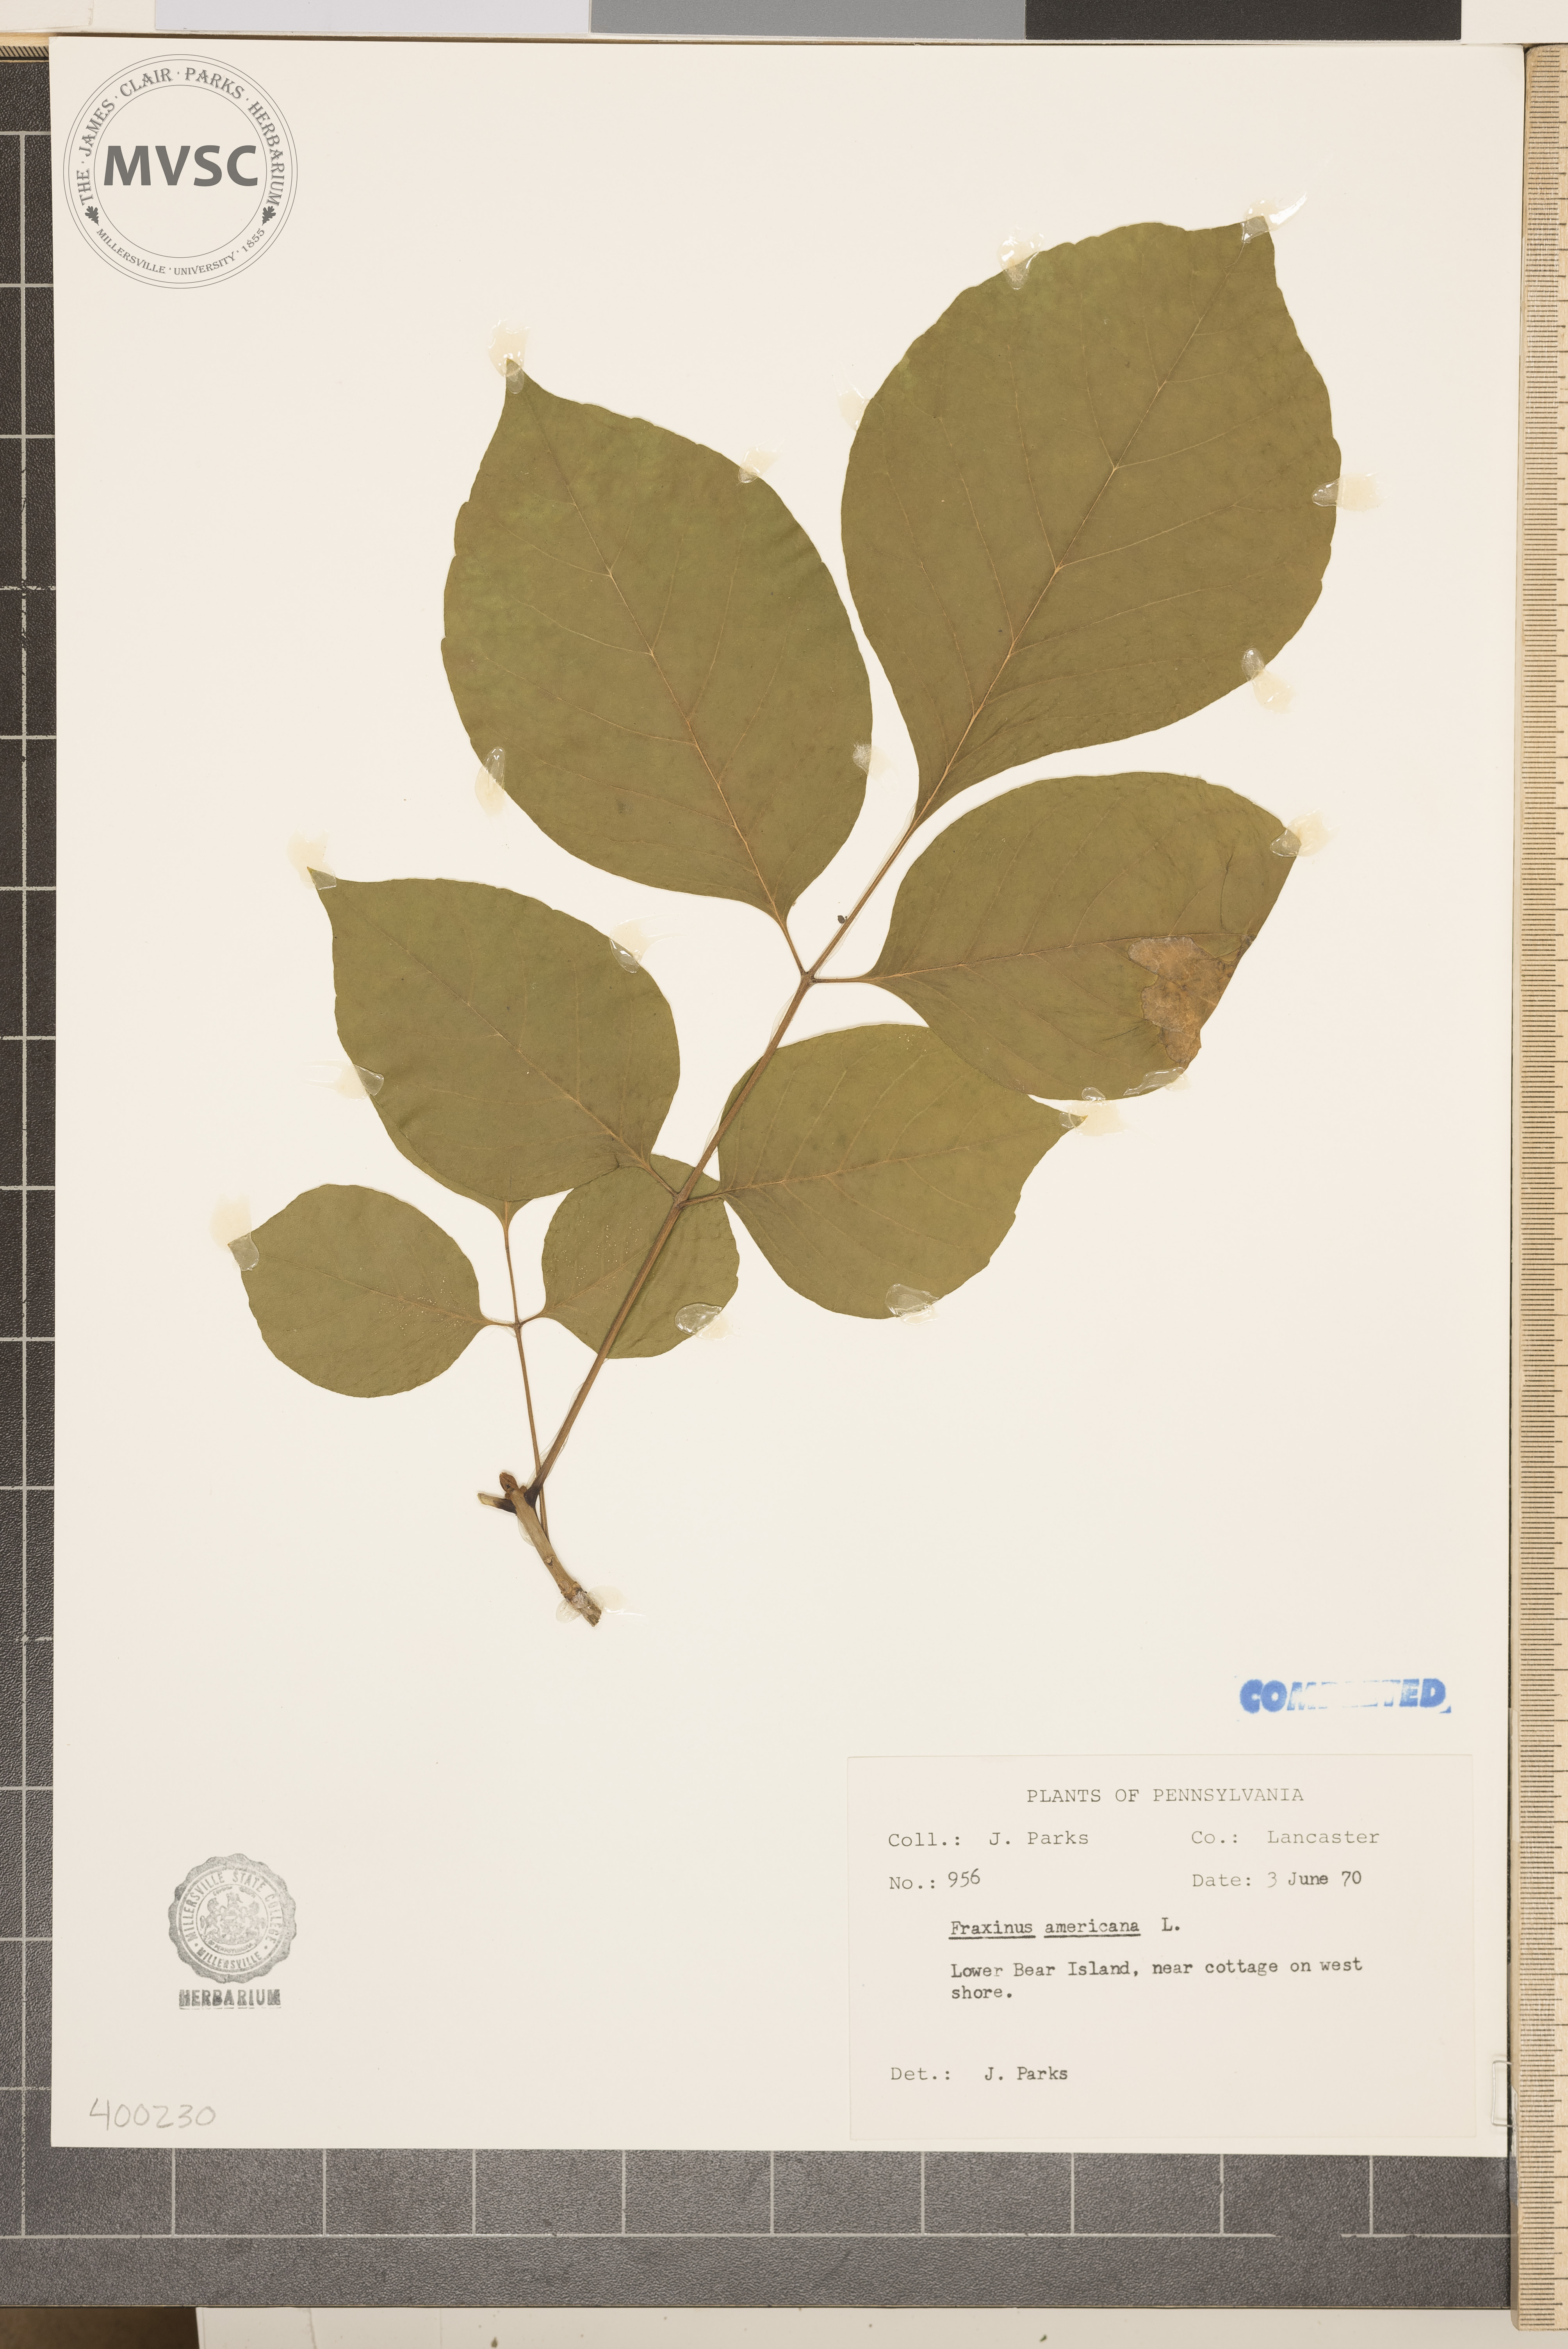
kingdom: Plantae
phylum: Tracheophyta
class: Magnoliopsida
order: Lamiales
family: Oleaceae
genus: Fraxinus
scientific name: Fraxinus americana
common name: ash
